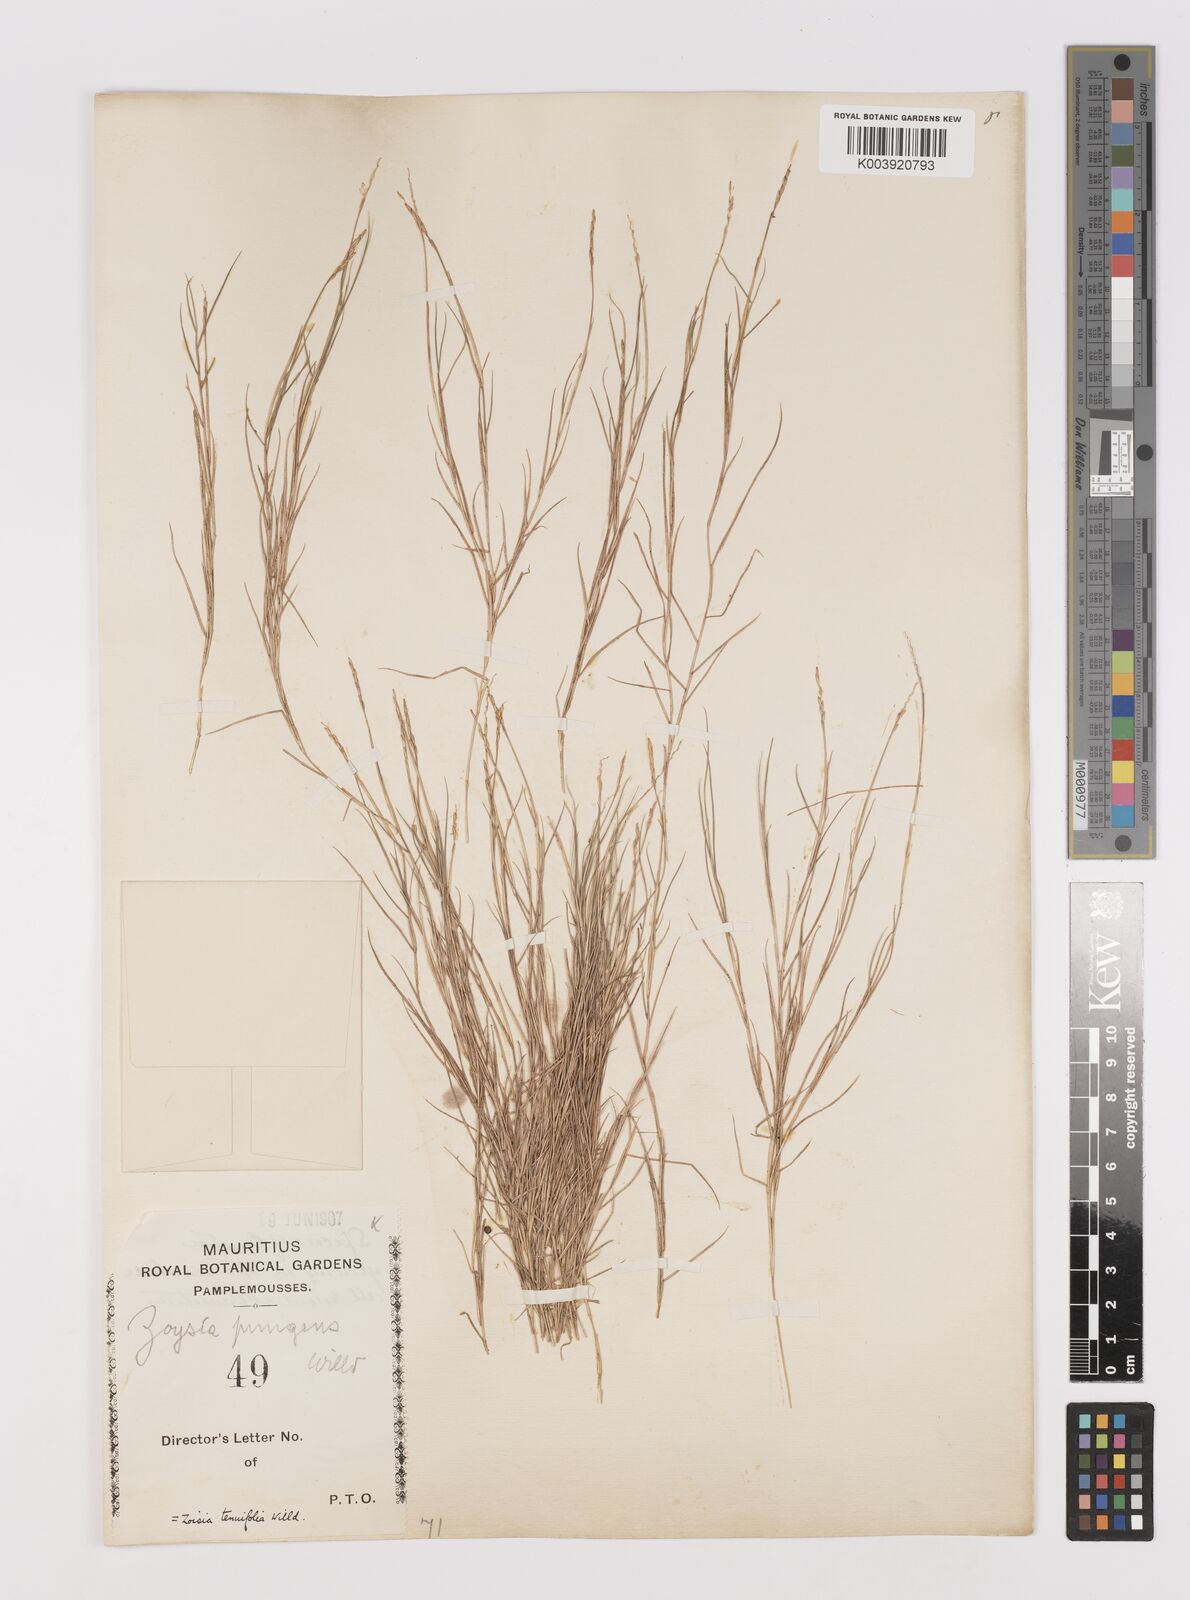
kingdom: Plantae
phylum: Tracheophyta
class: Liliopsida
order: Poales
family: Poaceae
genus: Zoysia
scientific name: Zoysia matrella
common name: Manila grass
